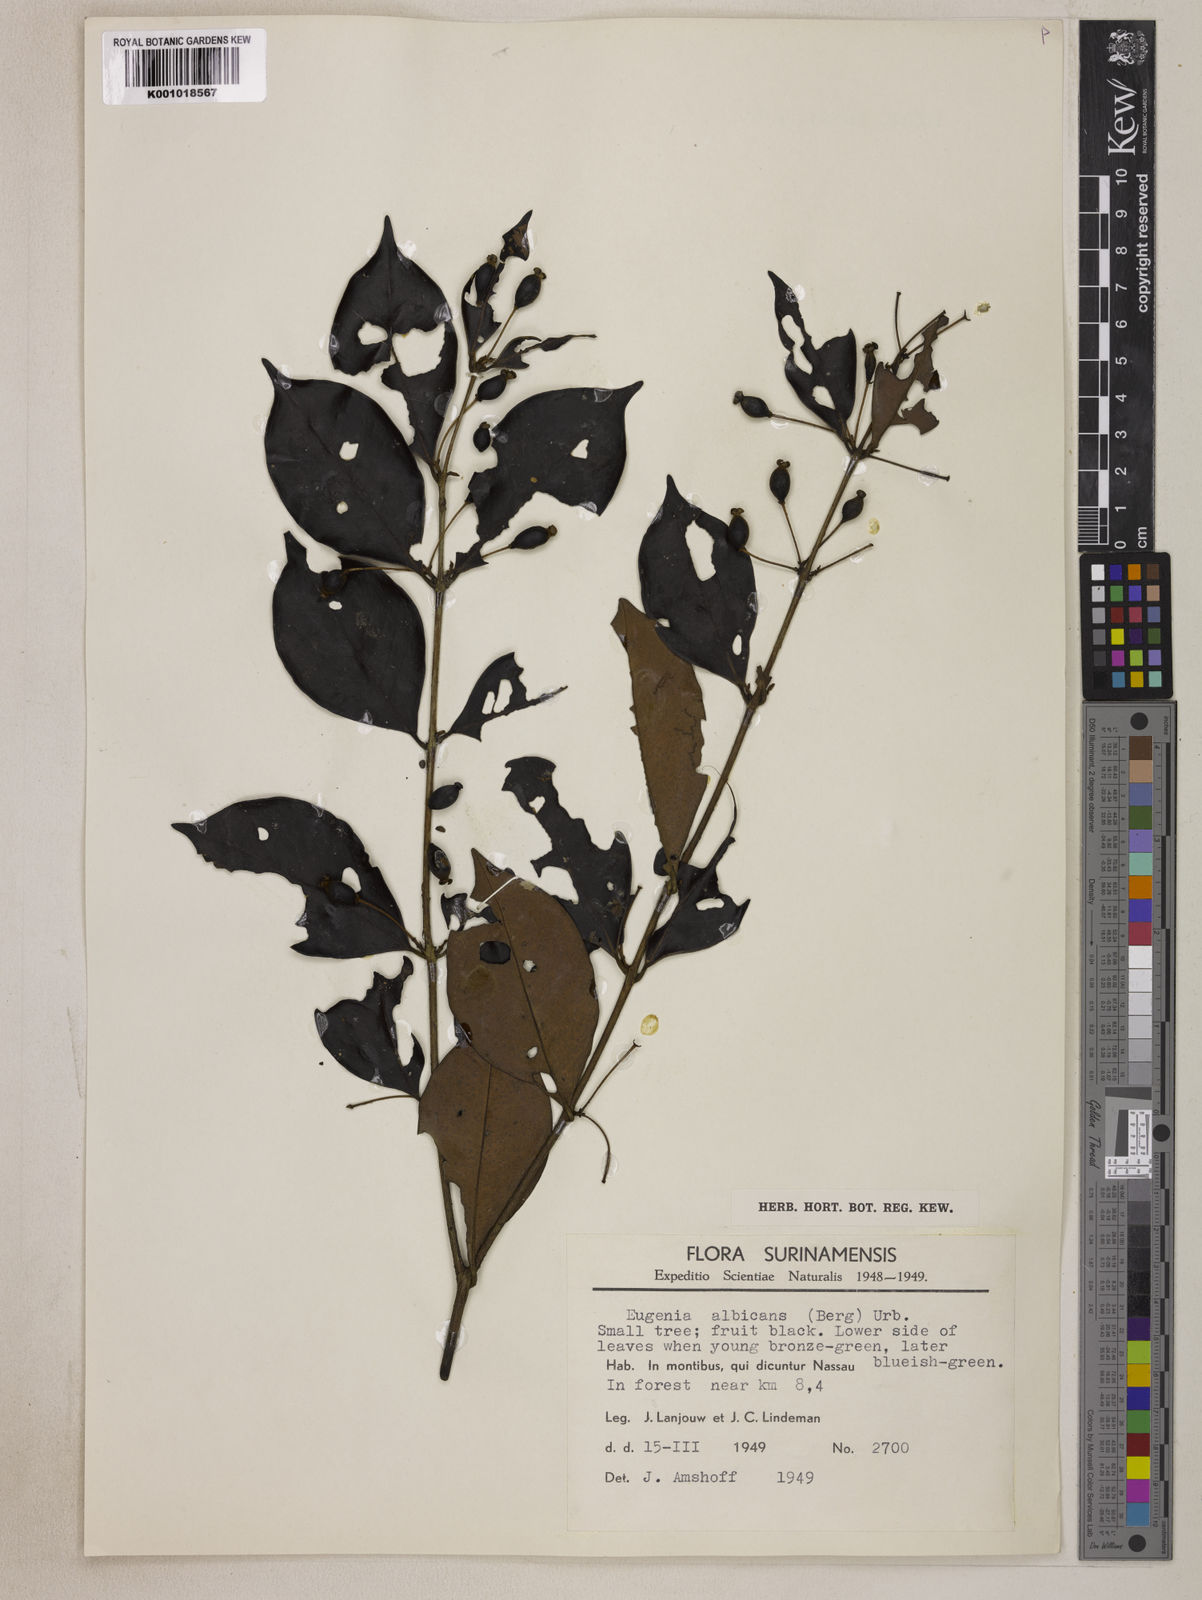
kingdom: Plantae
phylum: Tracheophyta
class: Magnoliopsida
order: Myrtales
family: Myrtaceae
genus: Eugenia
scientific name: Eugenia albicans
